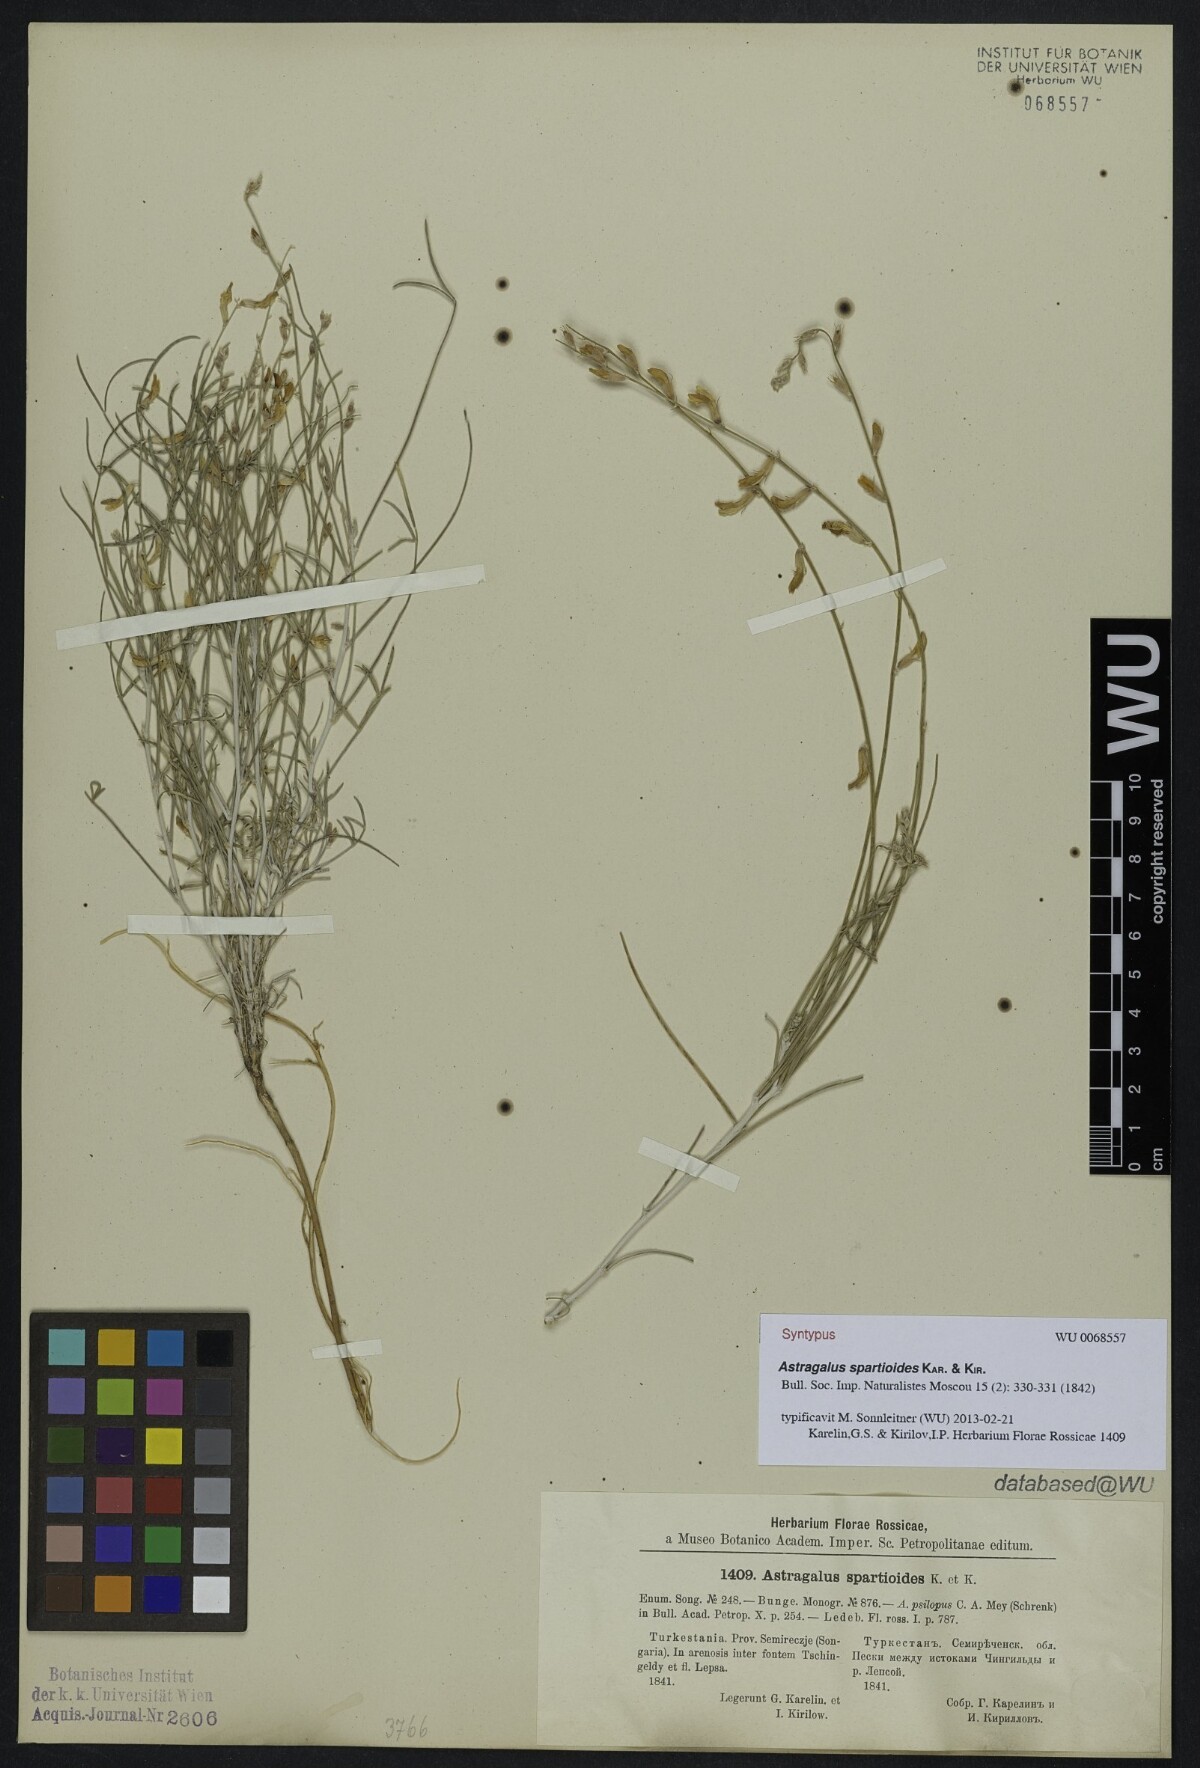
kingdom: Plantae
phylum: Tracheophyta
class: Magnoliopsida
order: Fabales
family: Fabaceae
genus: Astragalus
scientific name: Astragalus spartioides
